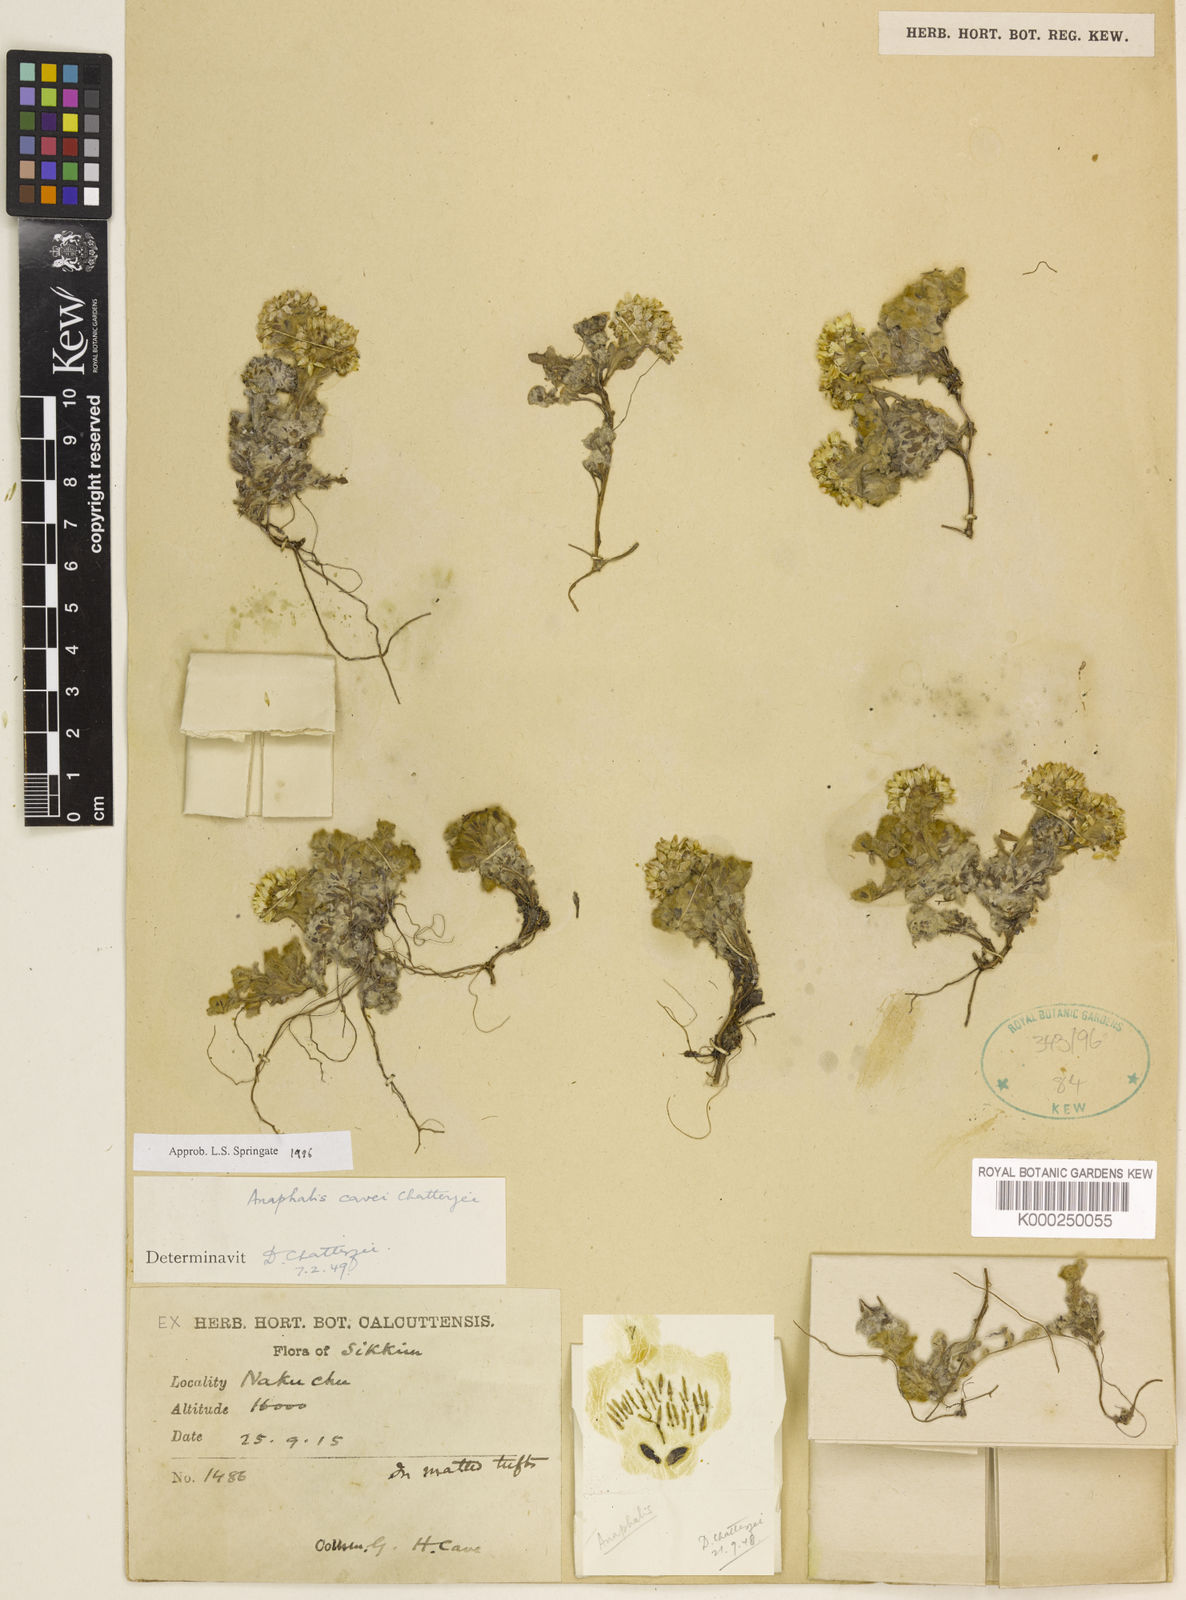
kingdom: Plantae
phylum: Tracheophyta
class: Magnoliopsida
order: Asterales
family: Asteraceae
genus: Anaphalis
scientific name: Anaphalis cavei
